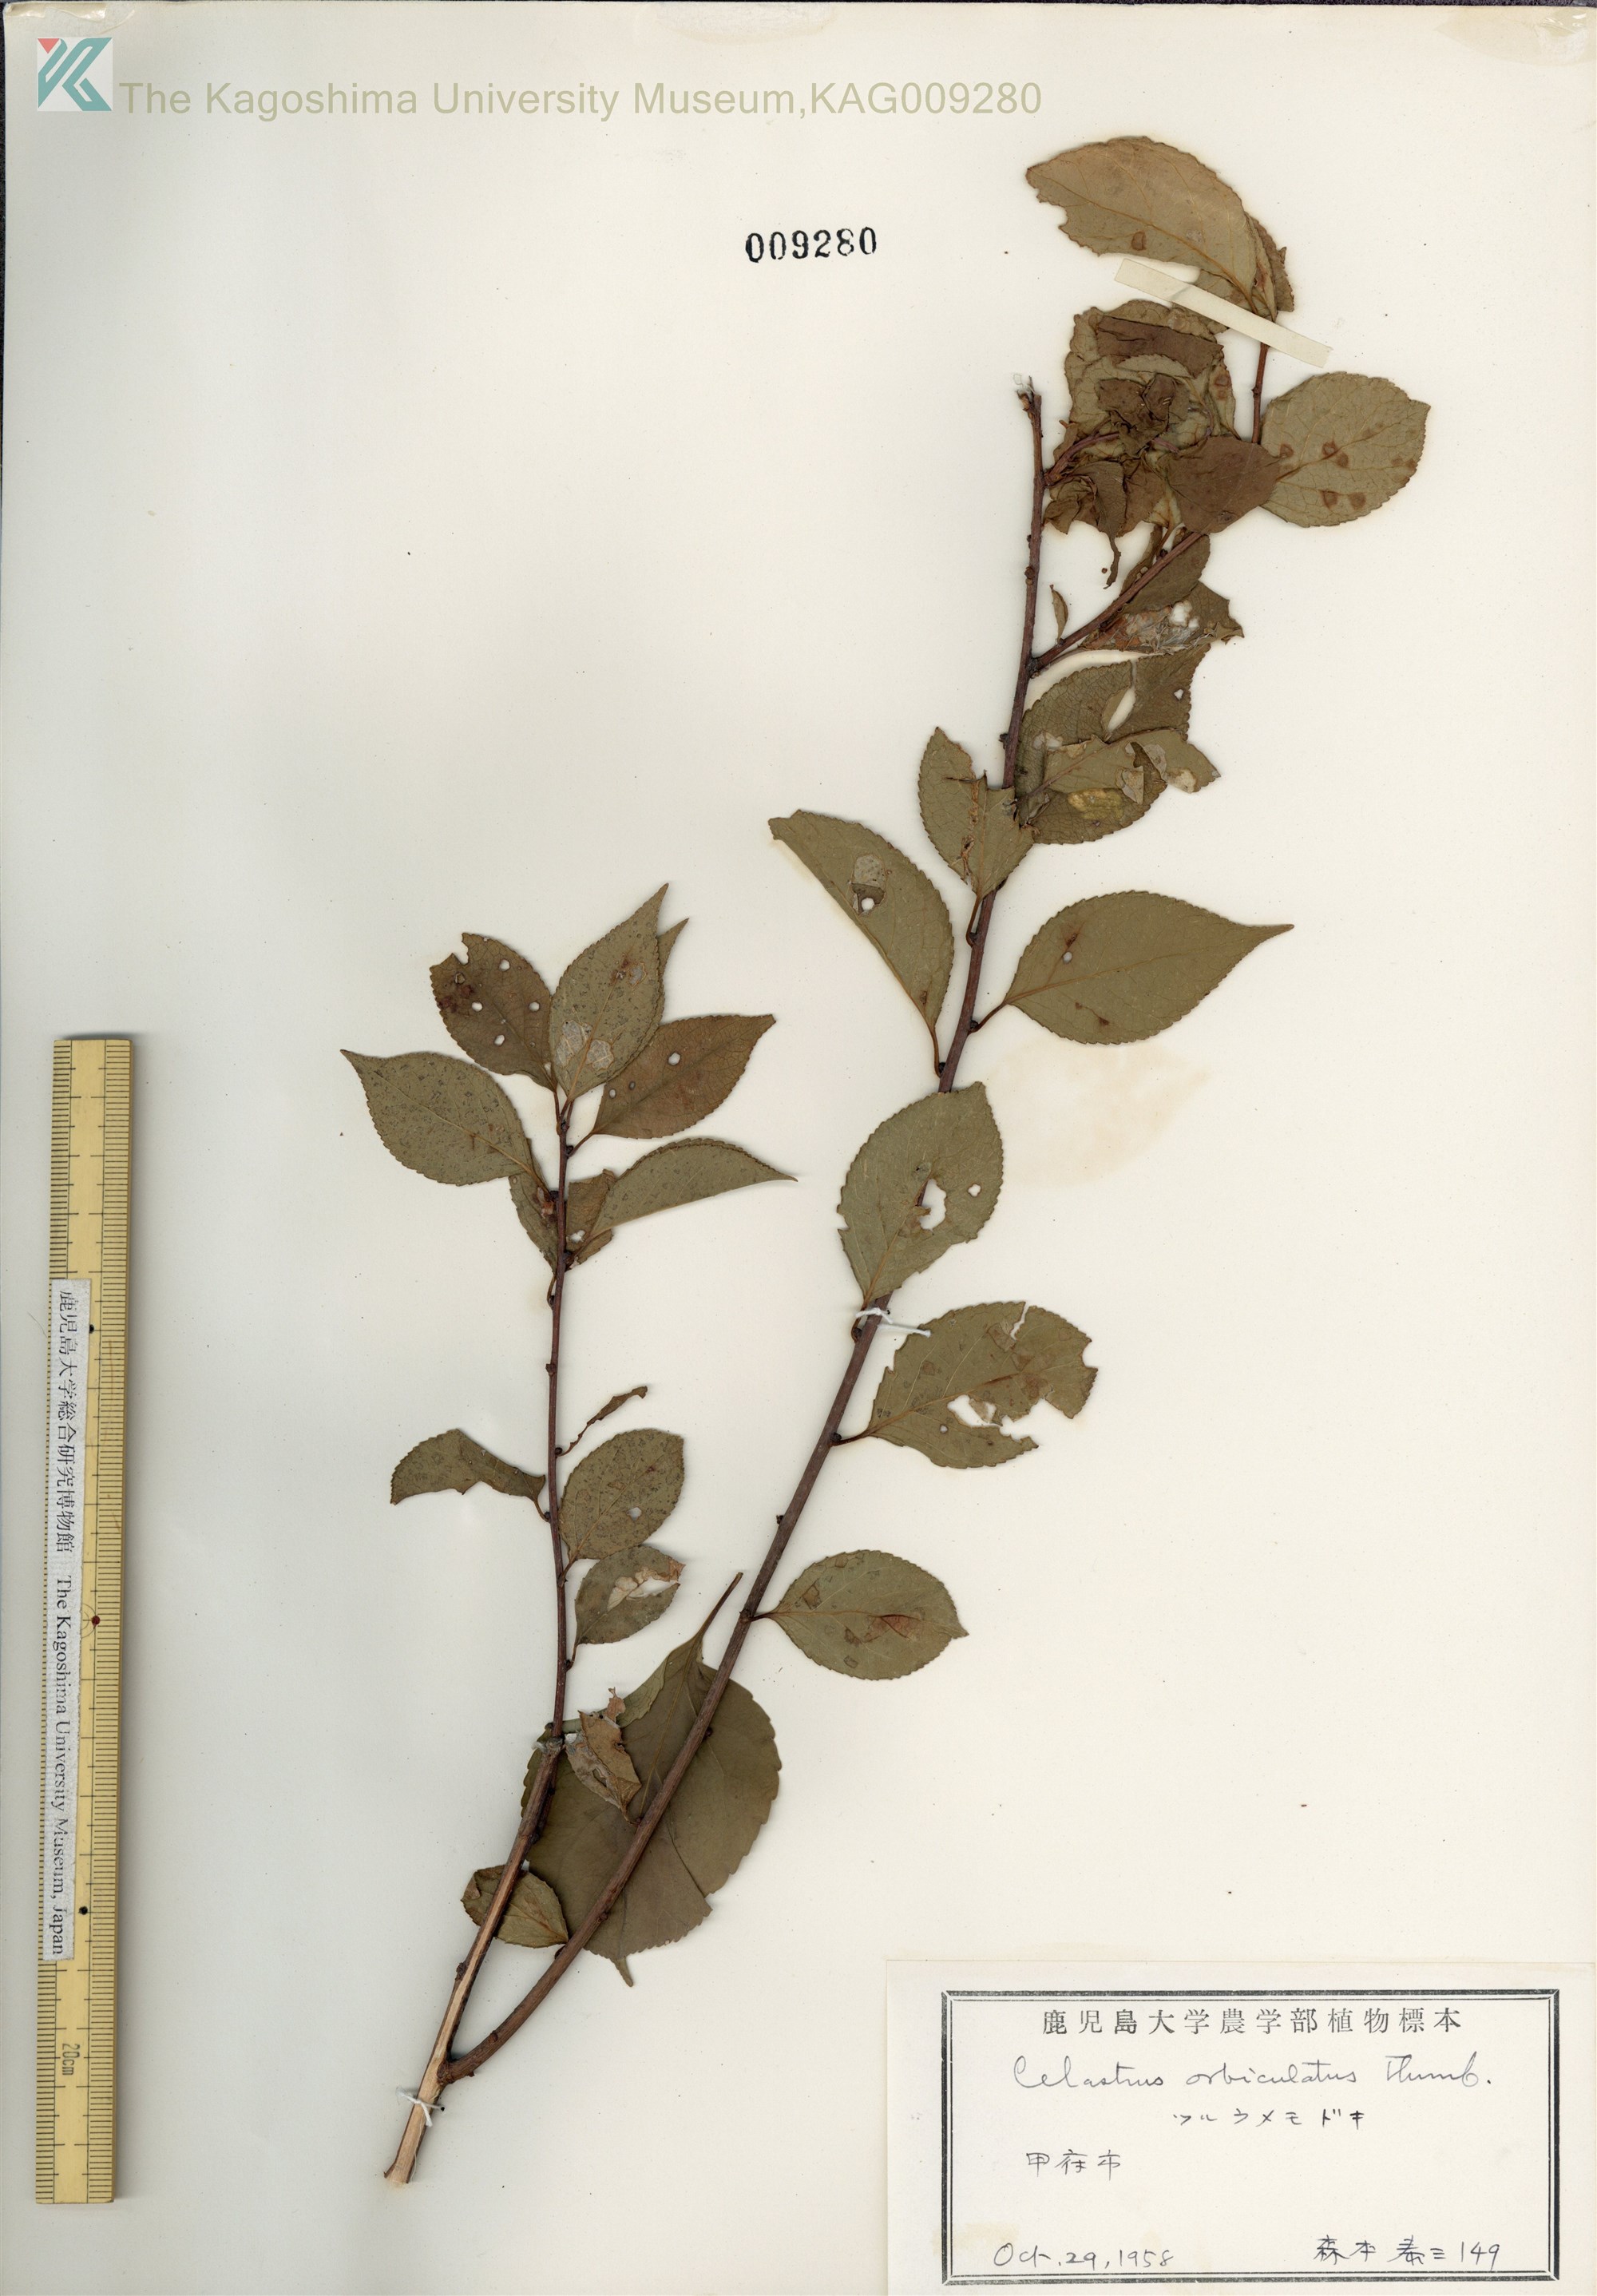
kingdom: Plantae
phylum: Tracheophyta
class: Magnoliopsida
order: Celastrales
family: Celastraceae
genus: Celastrus
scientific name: Celastrus orbiculatus
